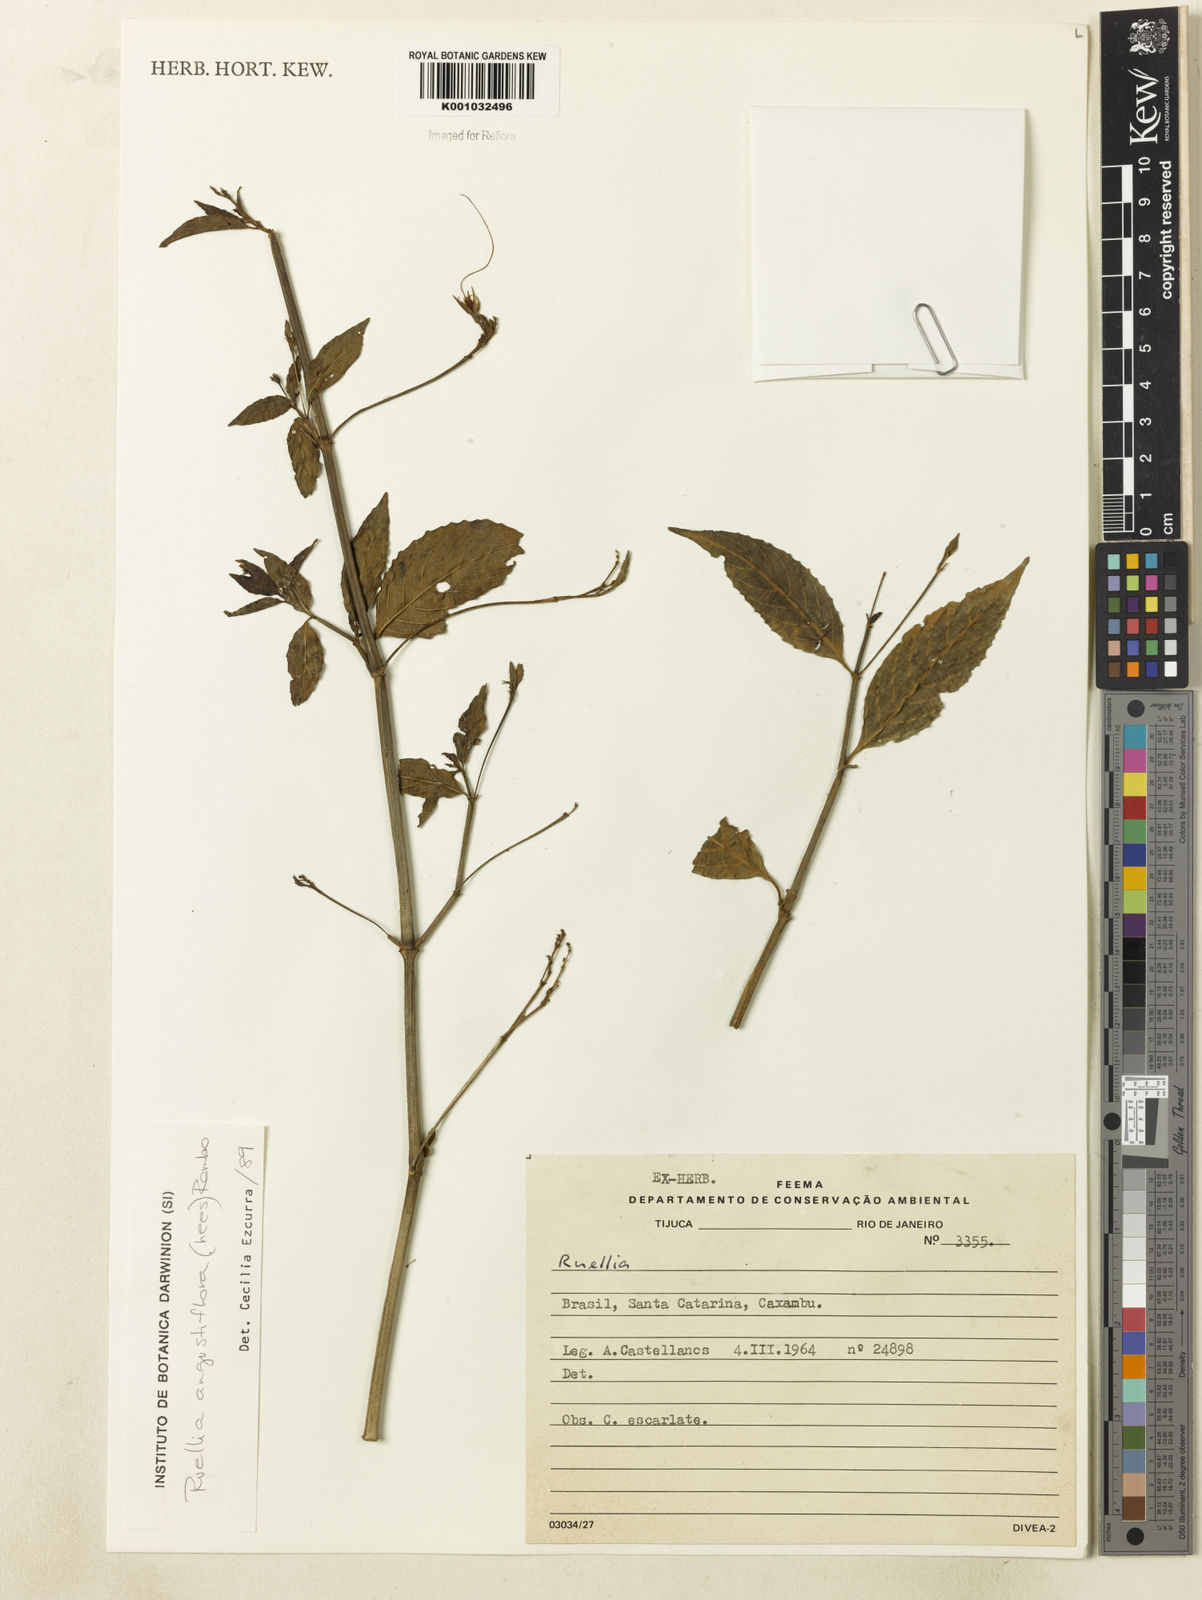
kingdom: Plantae
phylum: Tracheophyta
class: Magnoliopsida
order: Lamiales
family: Acanthaceae
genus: Ruellia
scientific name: Ruellia angustiflora
